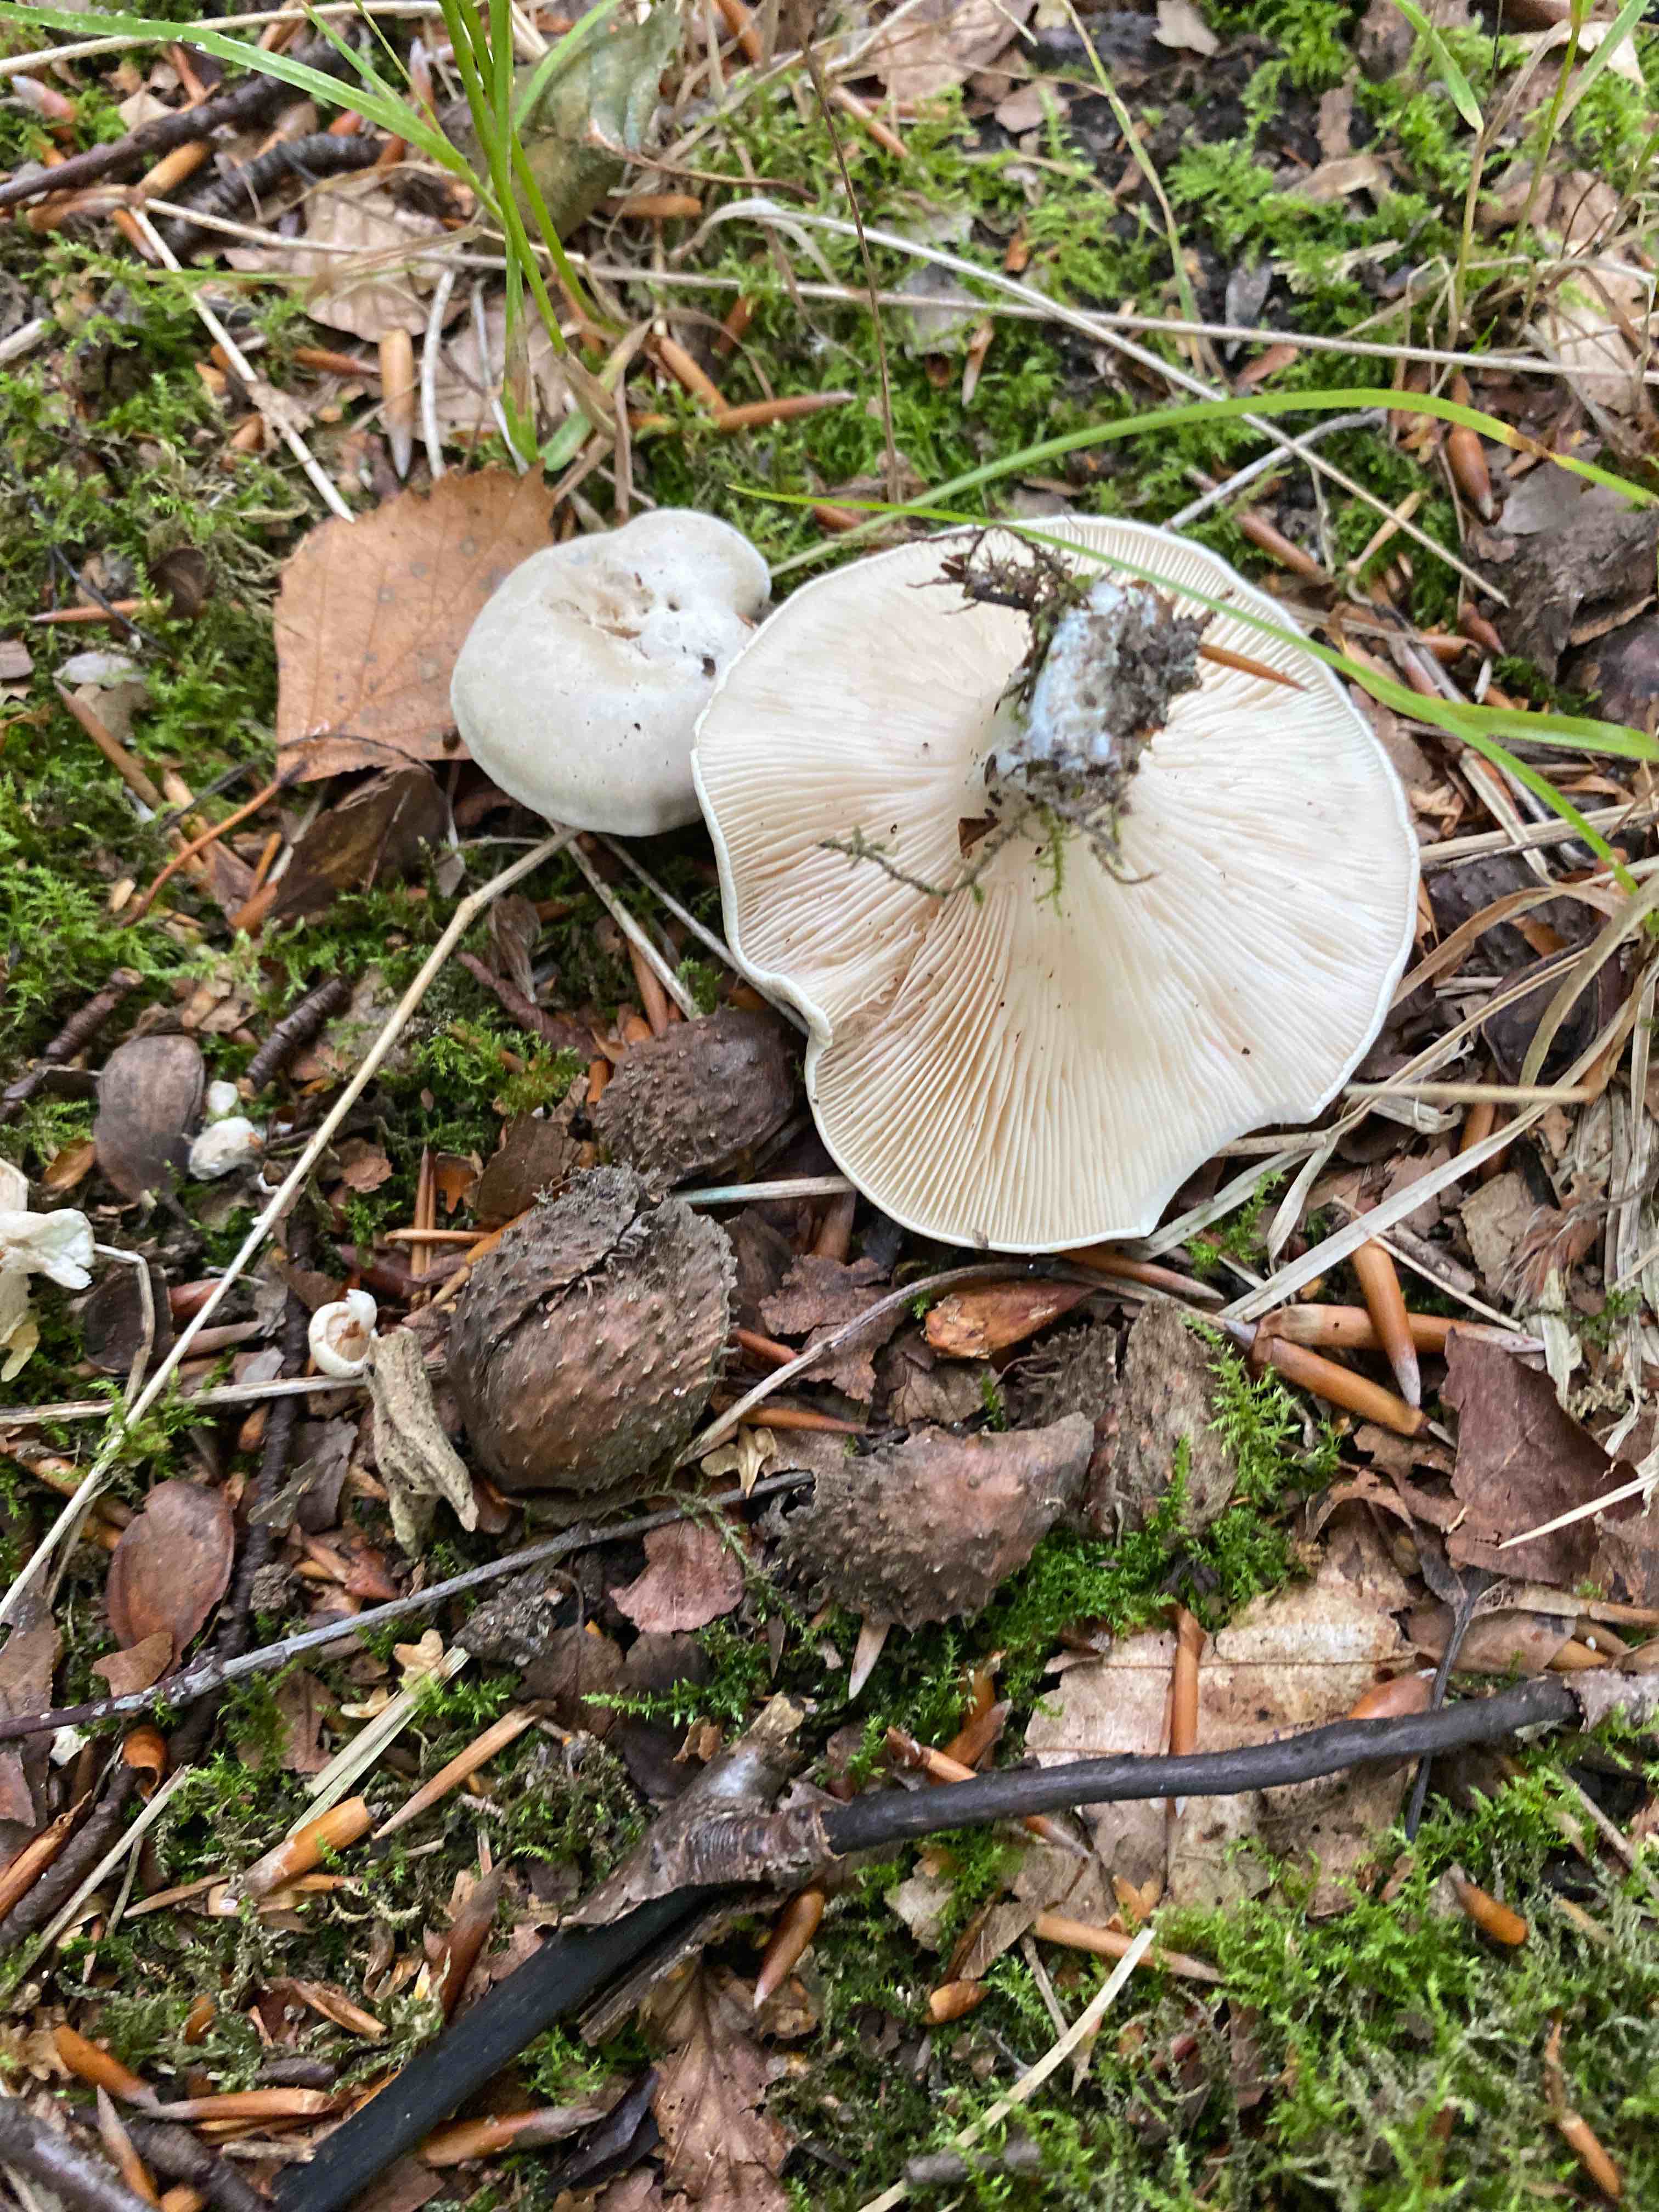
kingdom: Fungi
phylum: Basidiomycota
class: Agaricomycetes
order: Agaricales
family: Entolomataceae
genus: Clitopilus
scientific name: Clitopilus prunulus
